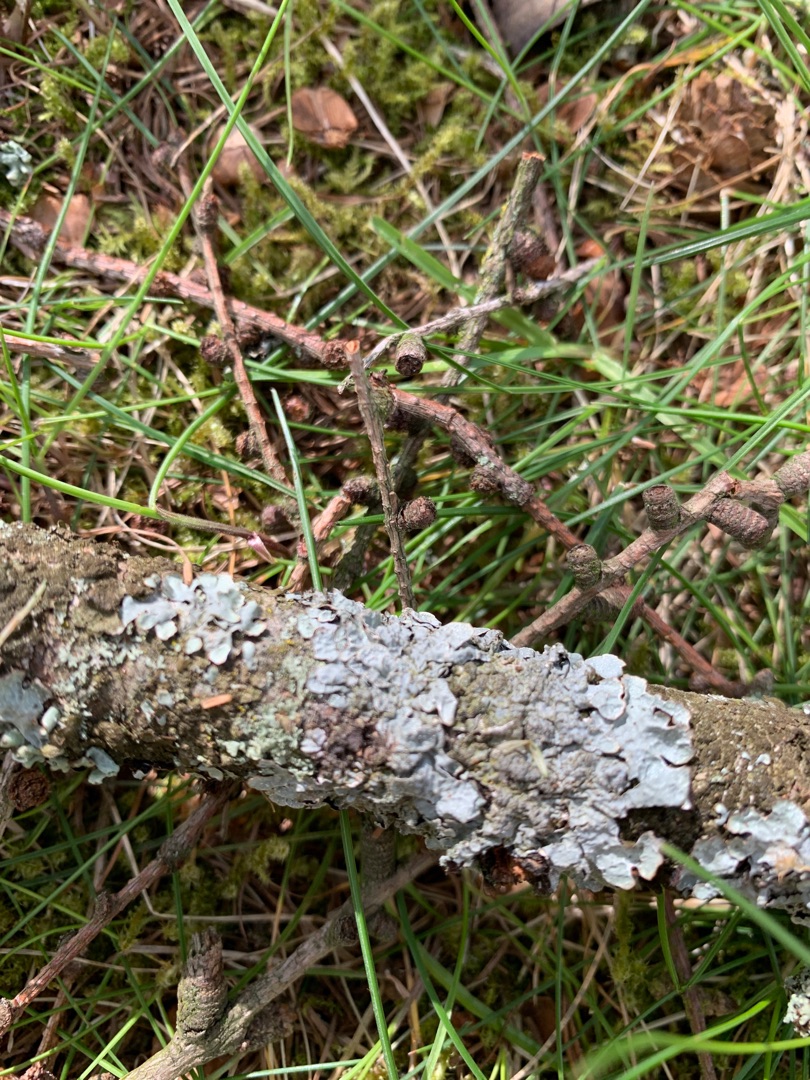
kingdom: Fungi
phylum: Ascomycota
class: Lecanoromycetes
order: Lecanorales
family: Parmeliaceae
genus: Parmelia
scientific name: Parmelia sulcata
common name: Rynket skållav
